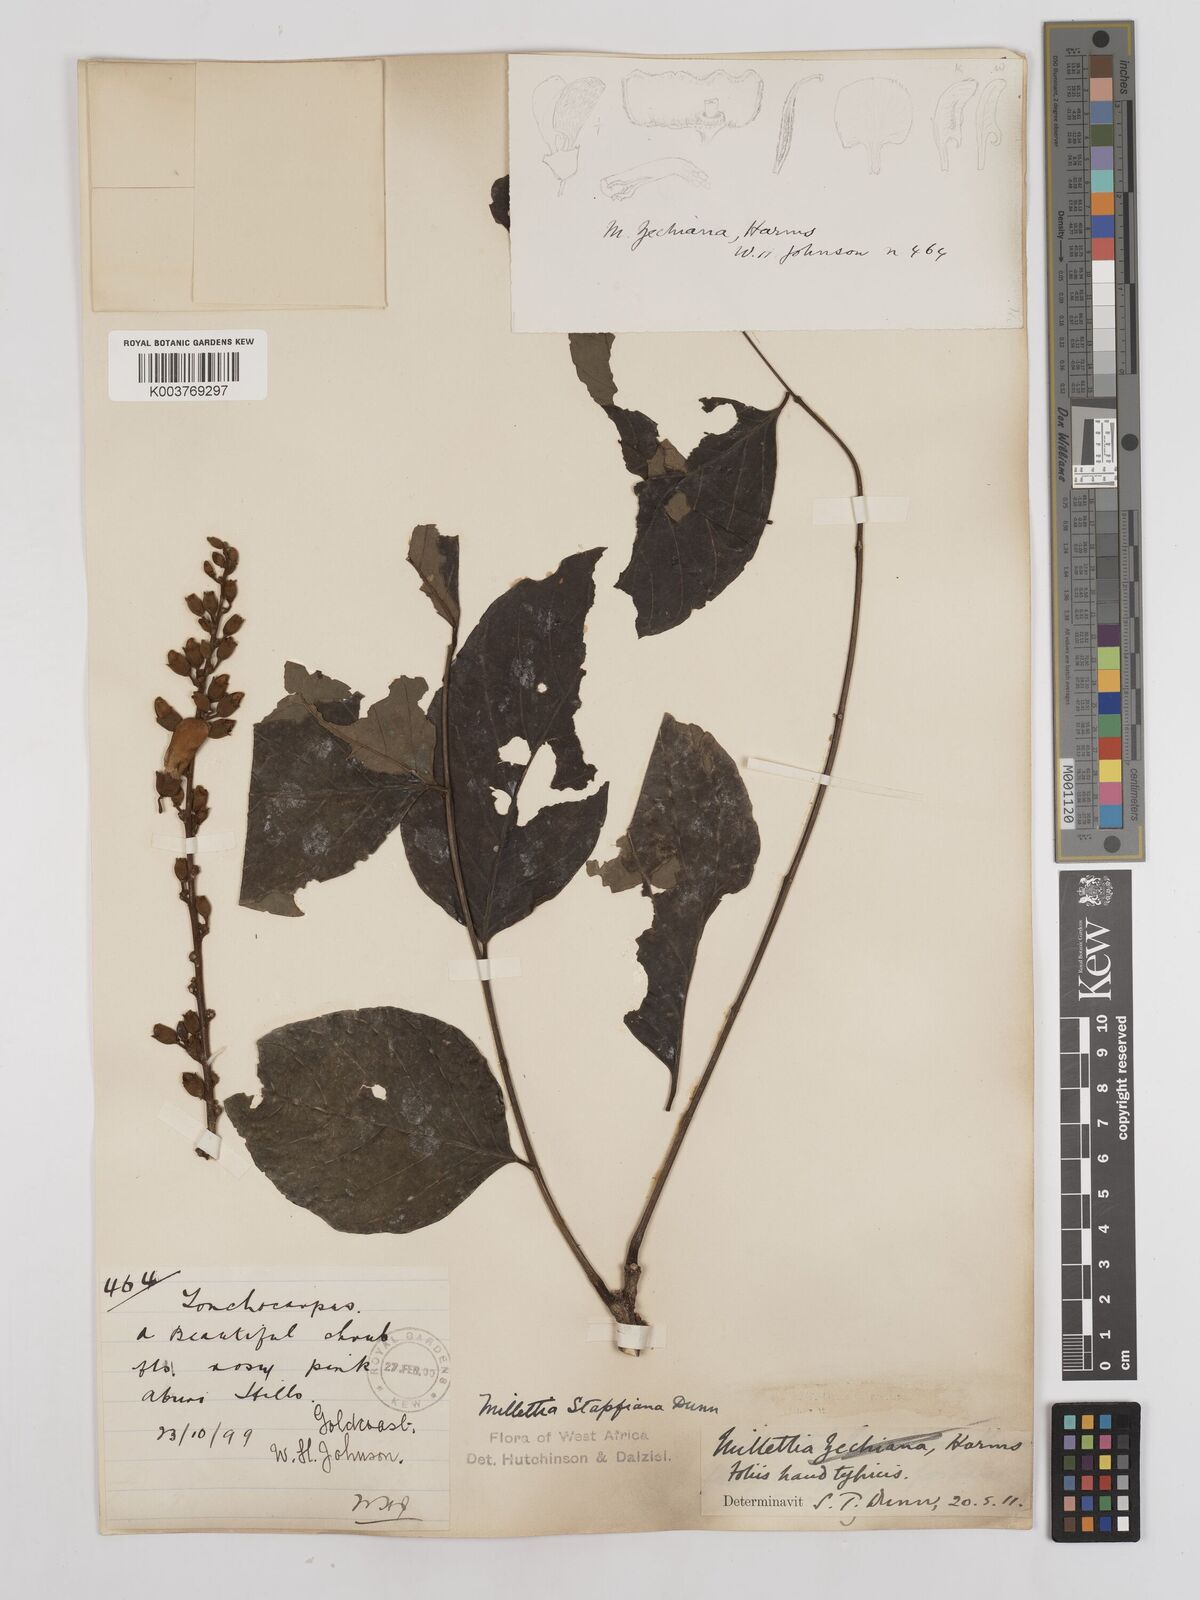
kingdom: Plantae
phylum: Tracheophyta
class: Magnoliopsida
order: Fabales
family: Fabaceae
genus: Millettia
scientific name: Millettia zechiana
